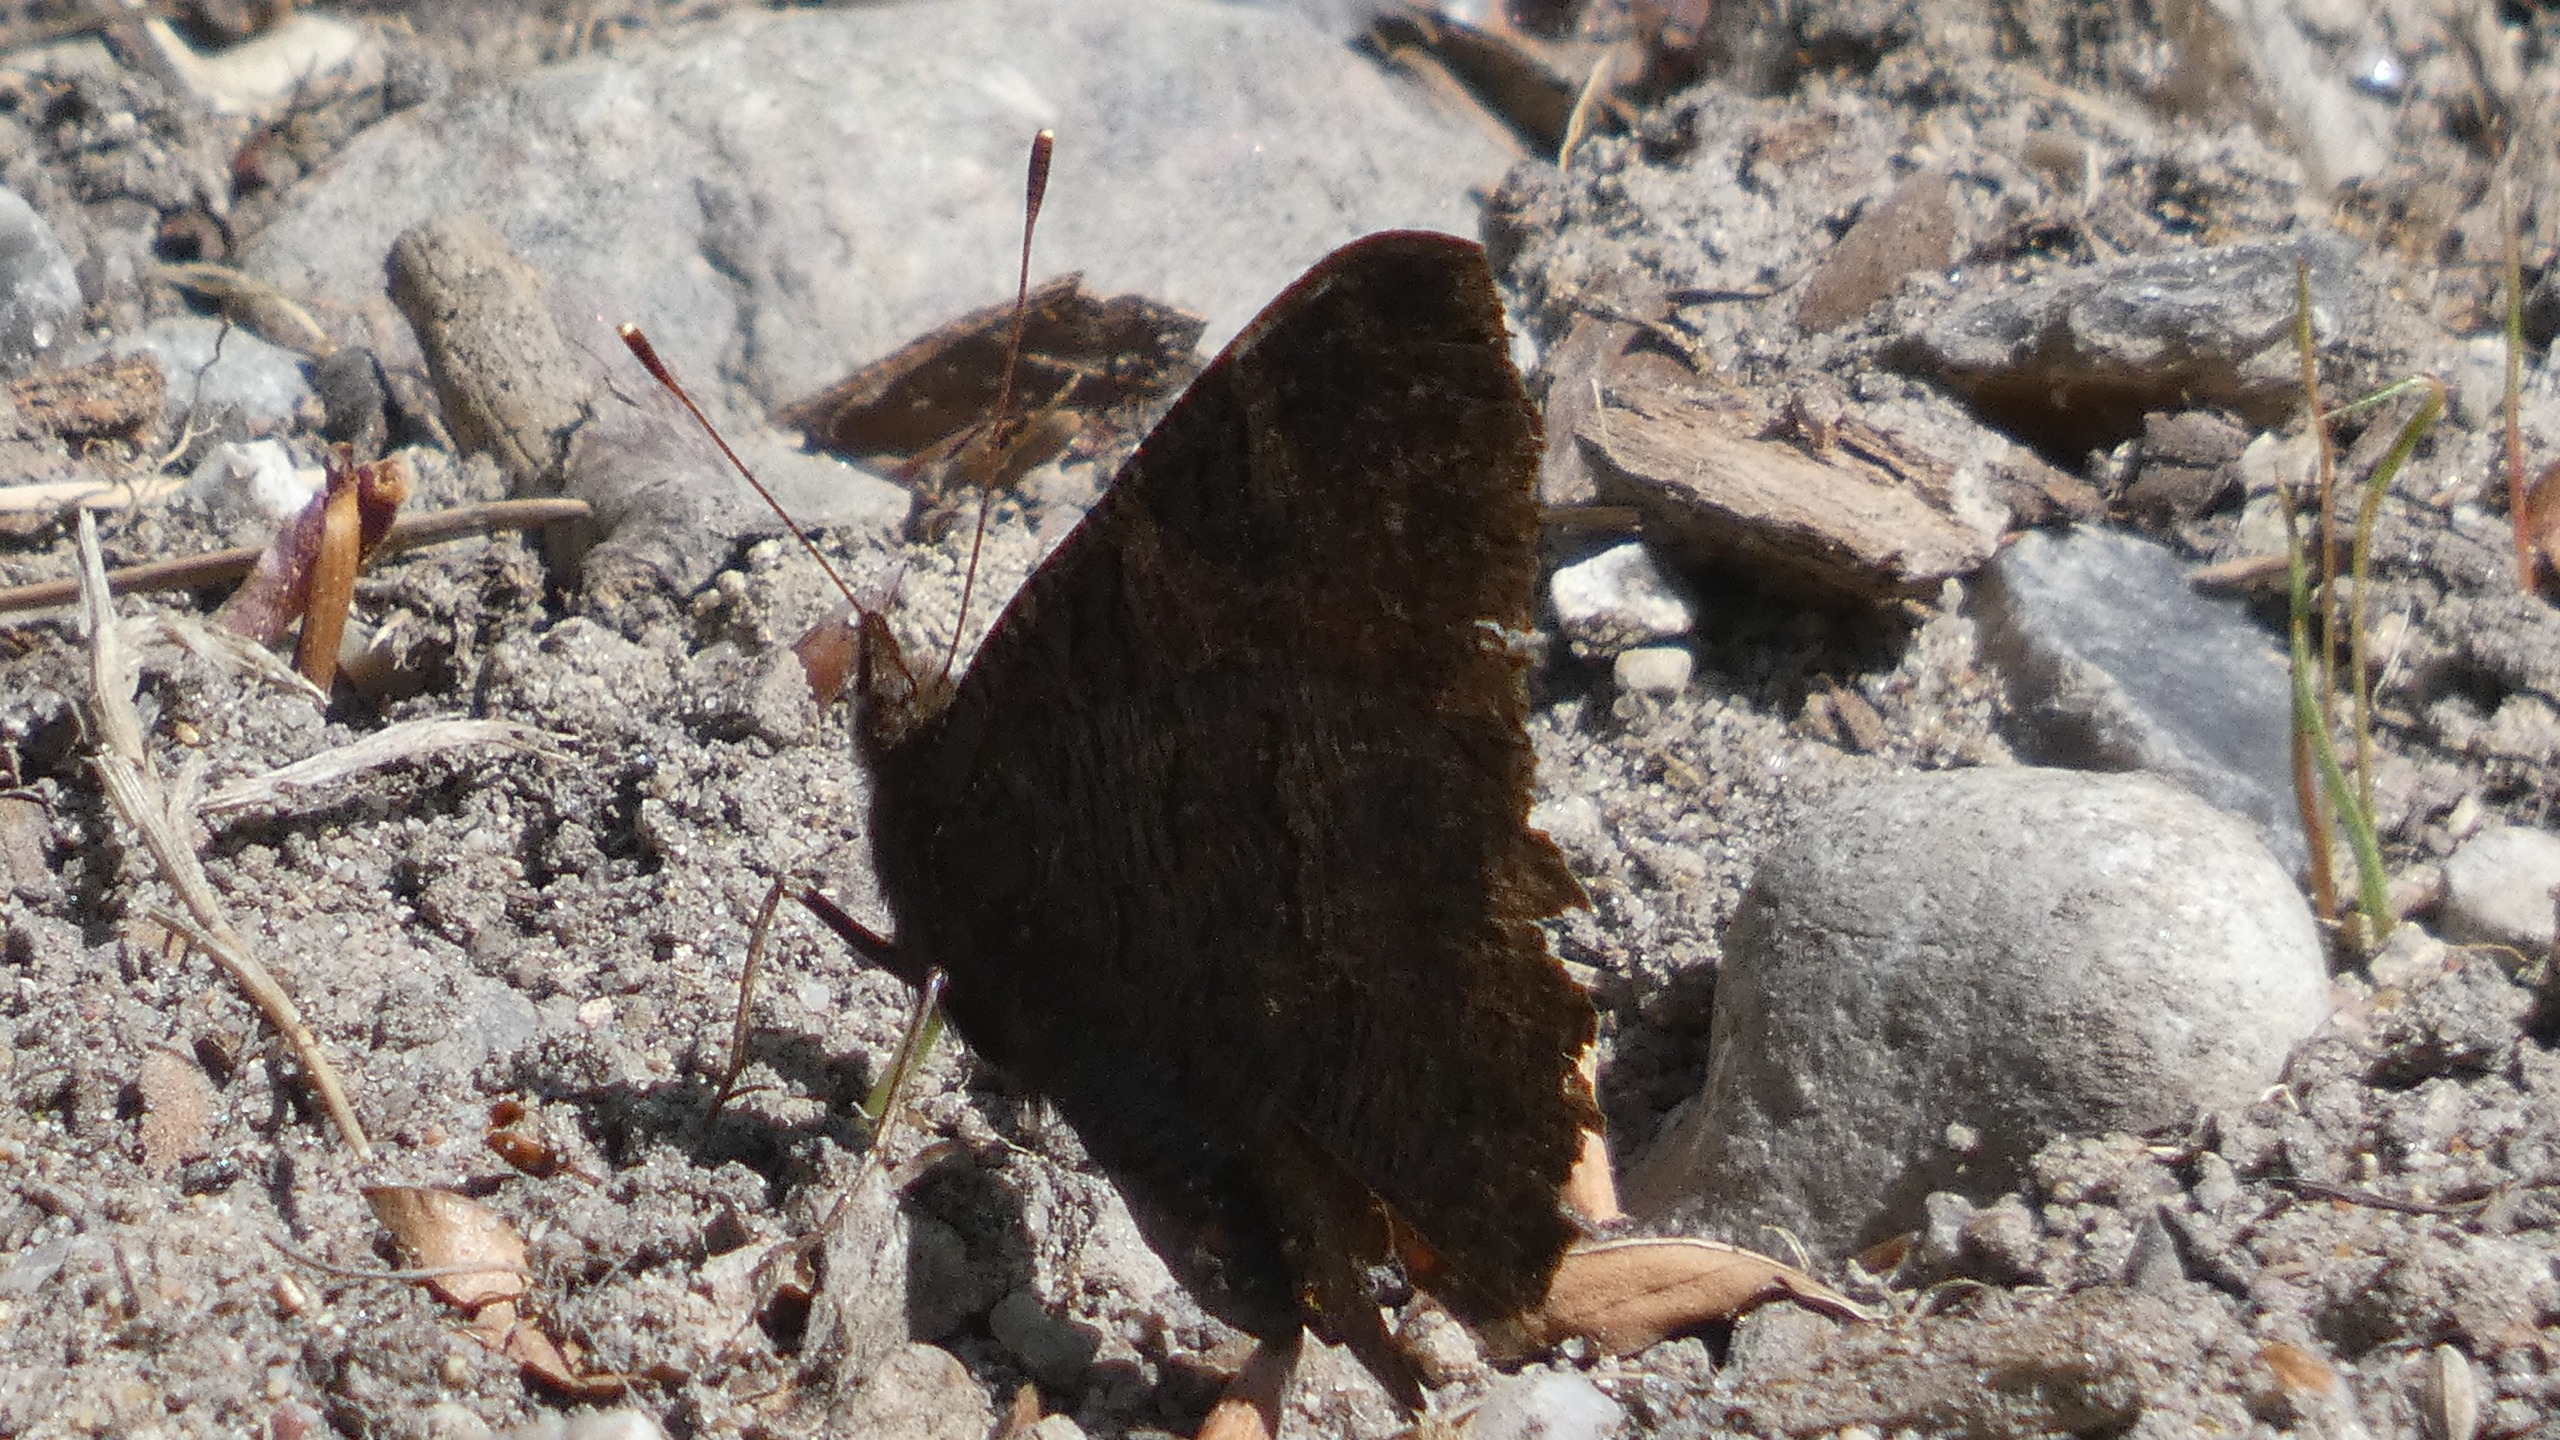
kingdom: Animalia
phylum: Arthropoda
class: Insecta
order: Lepidoptera
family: Nymphalidae
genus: Aglais
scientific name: Aglais io
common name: Dagpåfugleøje
